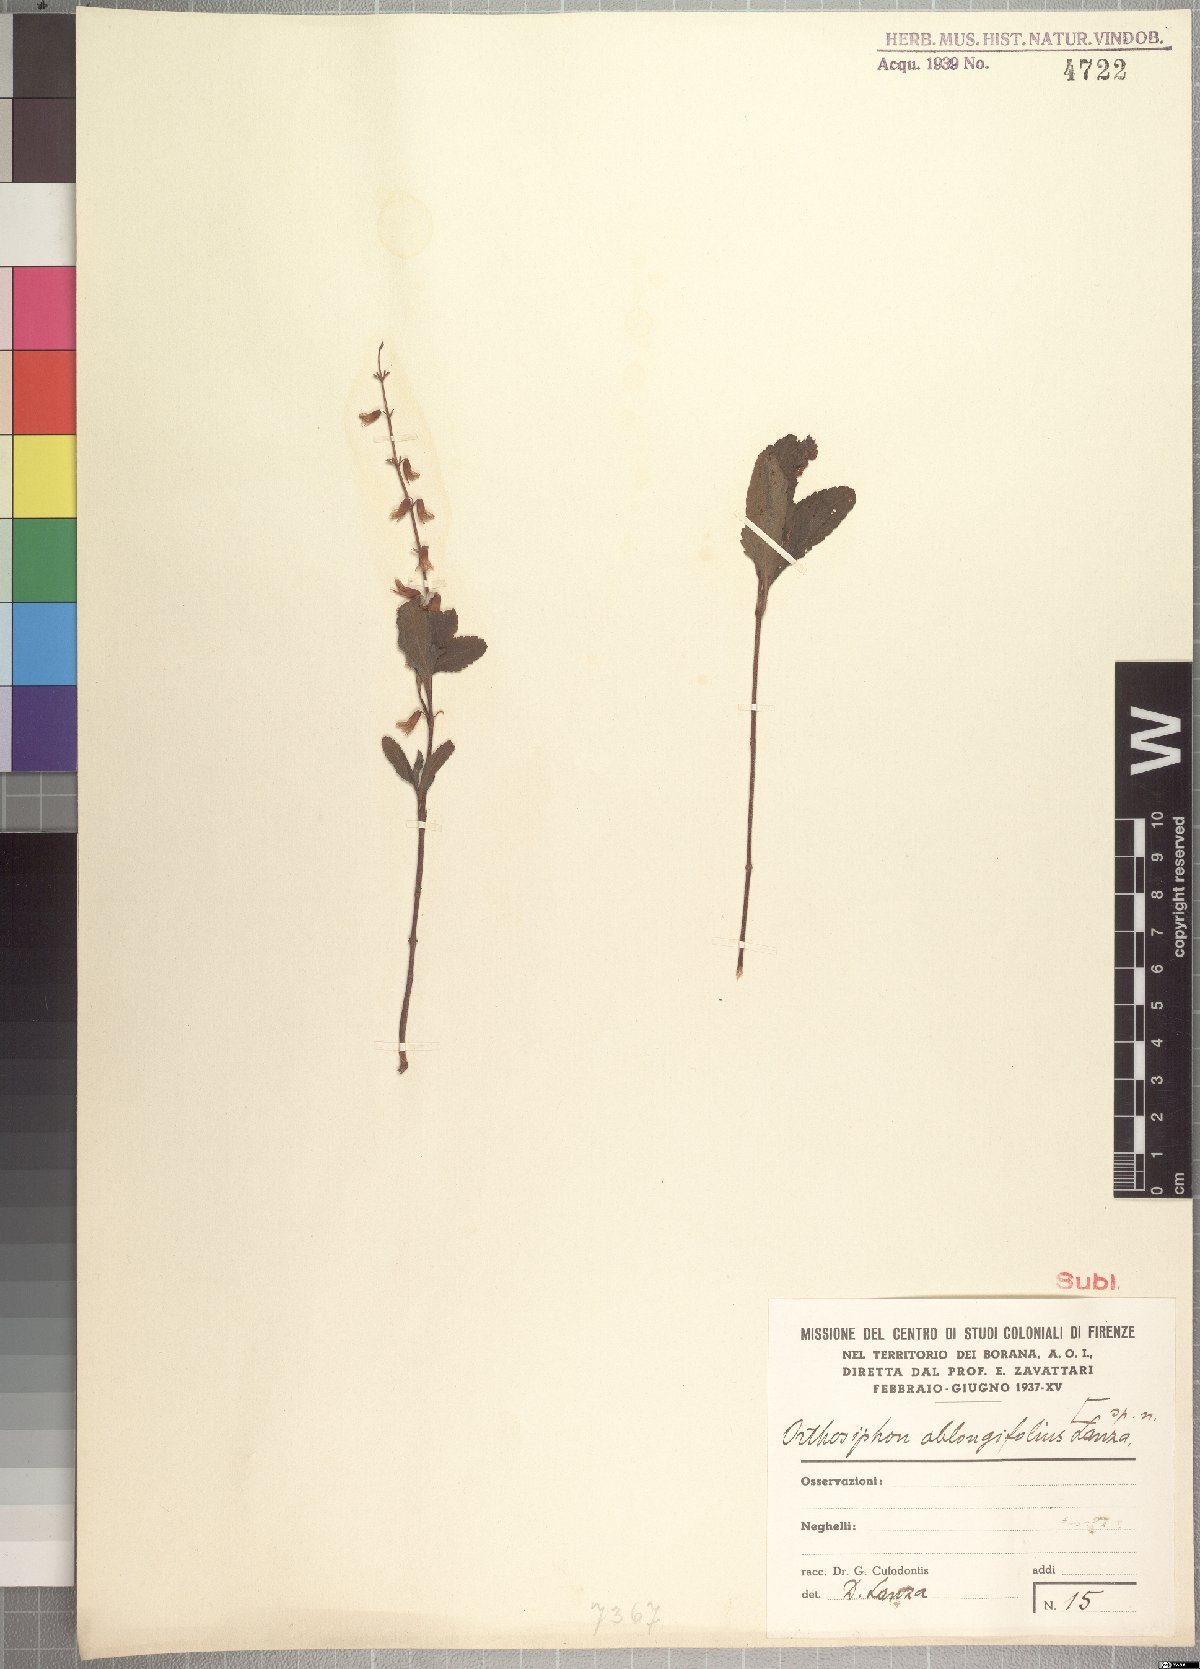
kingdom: Plantae
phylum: Tracheophyta
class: Magnoliopsida
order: Lamiales
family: Lamiaceae
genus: Endostemon
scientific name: Endostemon kelleri
